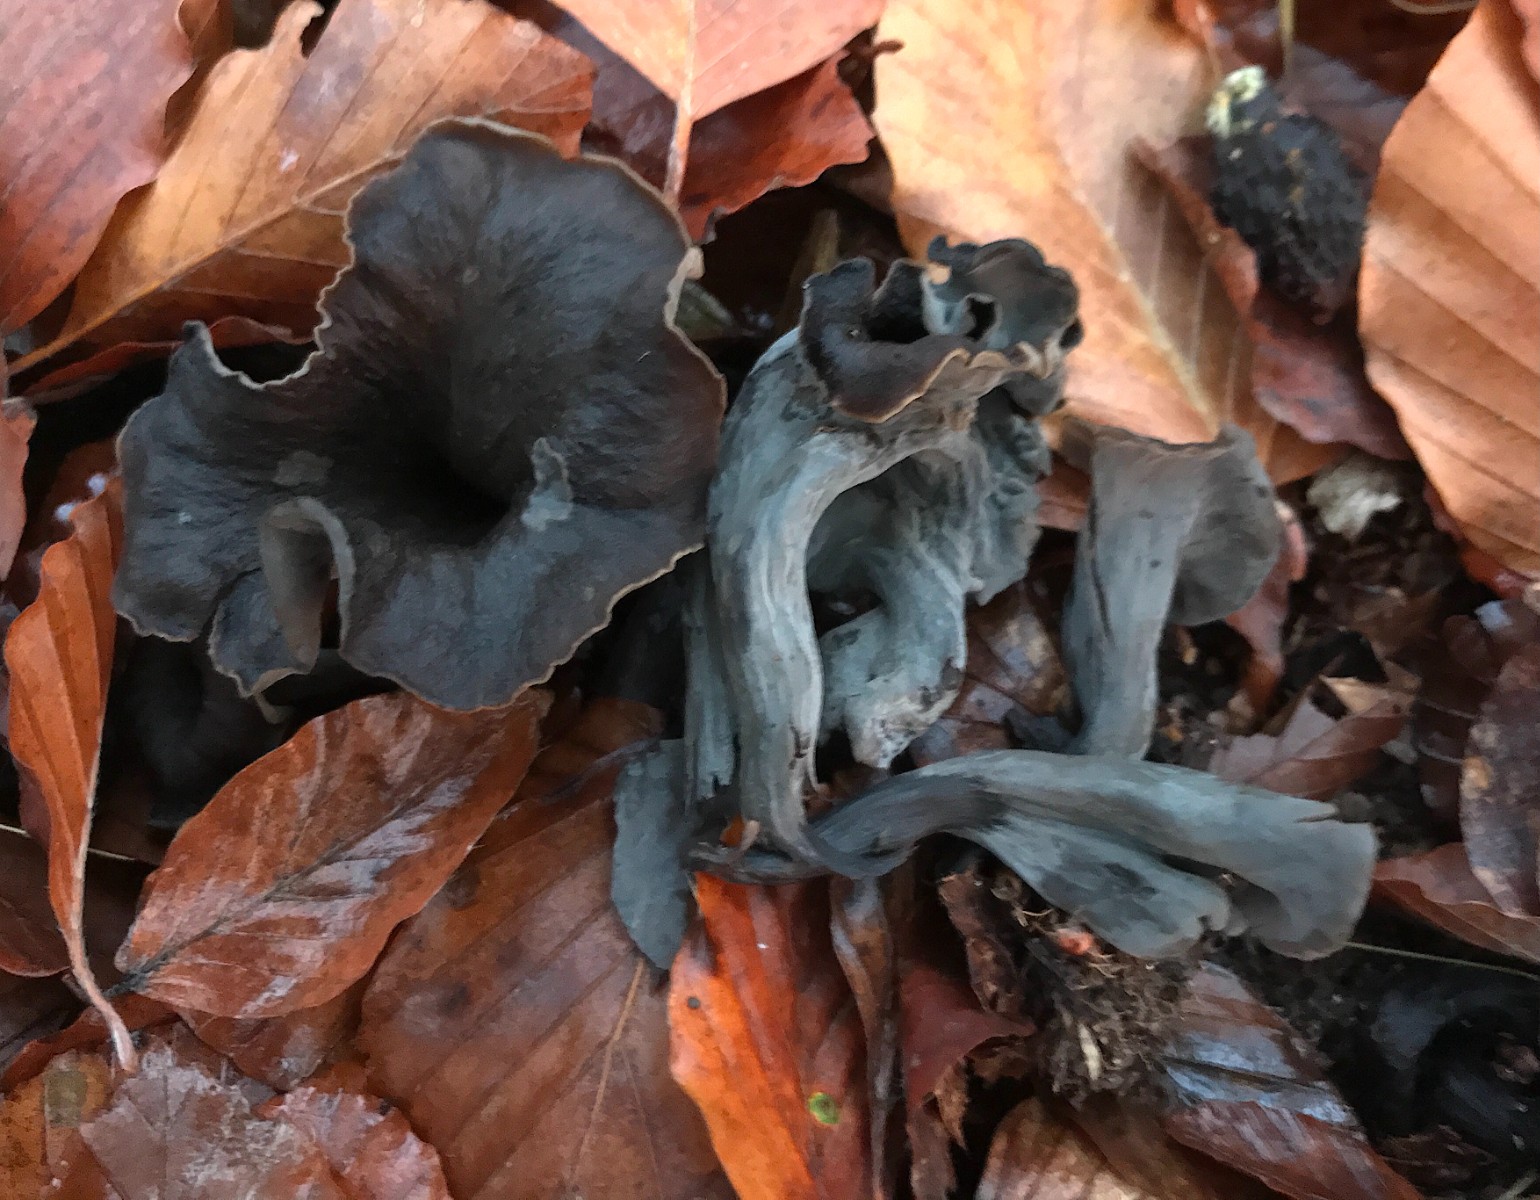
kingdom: Fungi
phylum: Basidiomycota
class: Agaricomycetes
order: Cantharellales
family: Hydnaceae
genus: Craterellus
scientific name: Craterellus cornucopioides
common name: trompetsvamp
